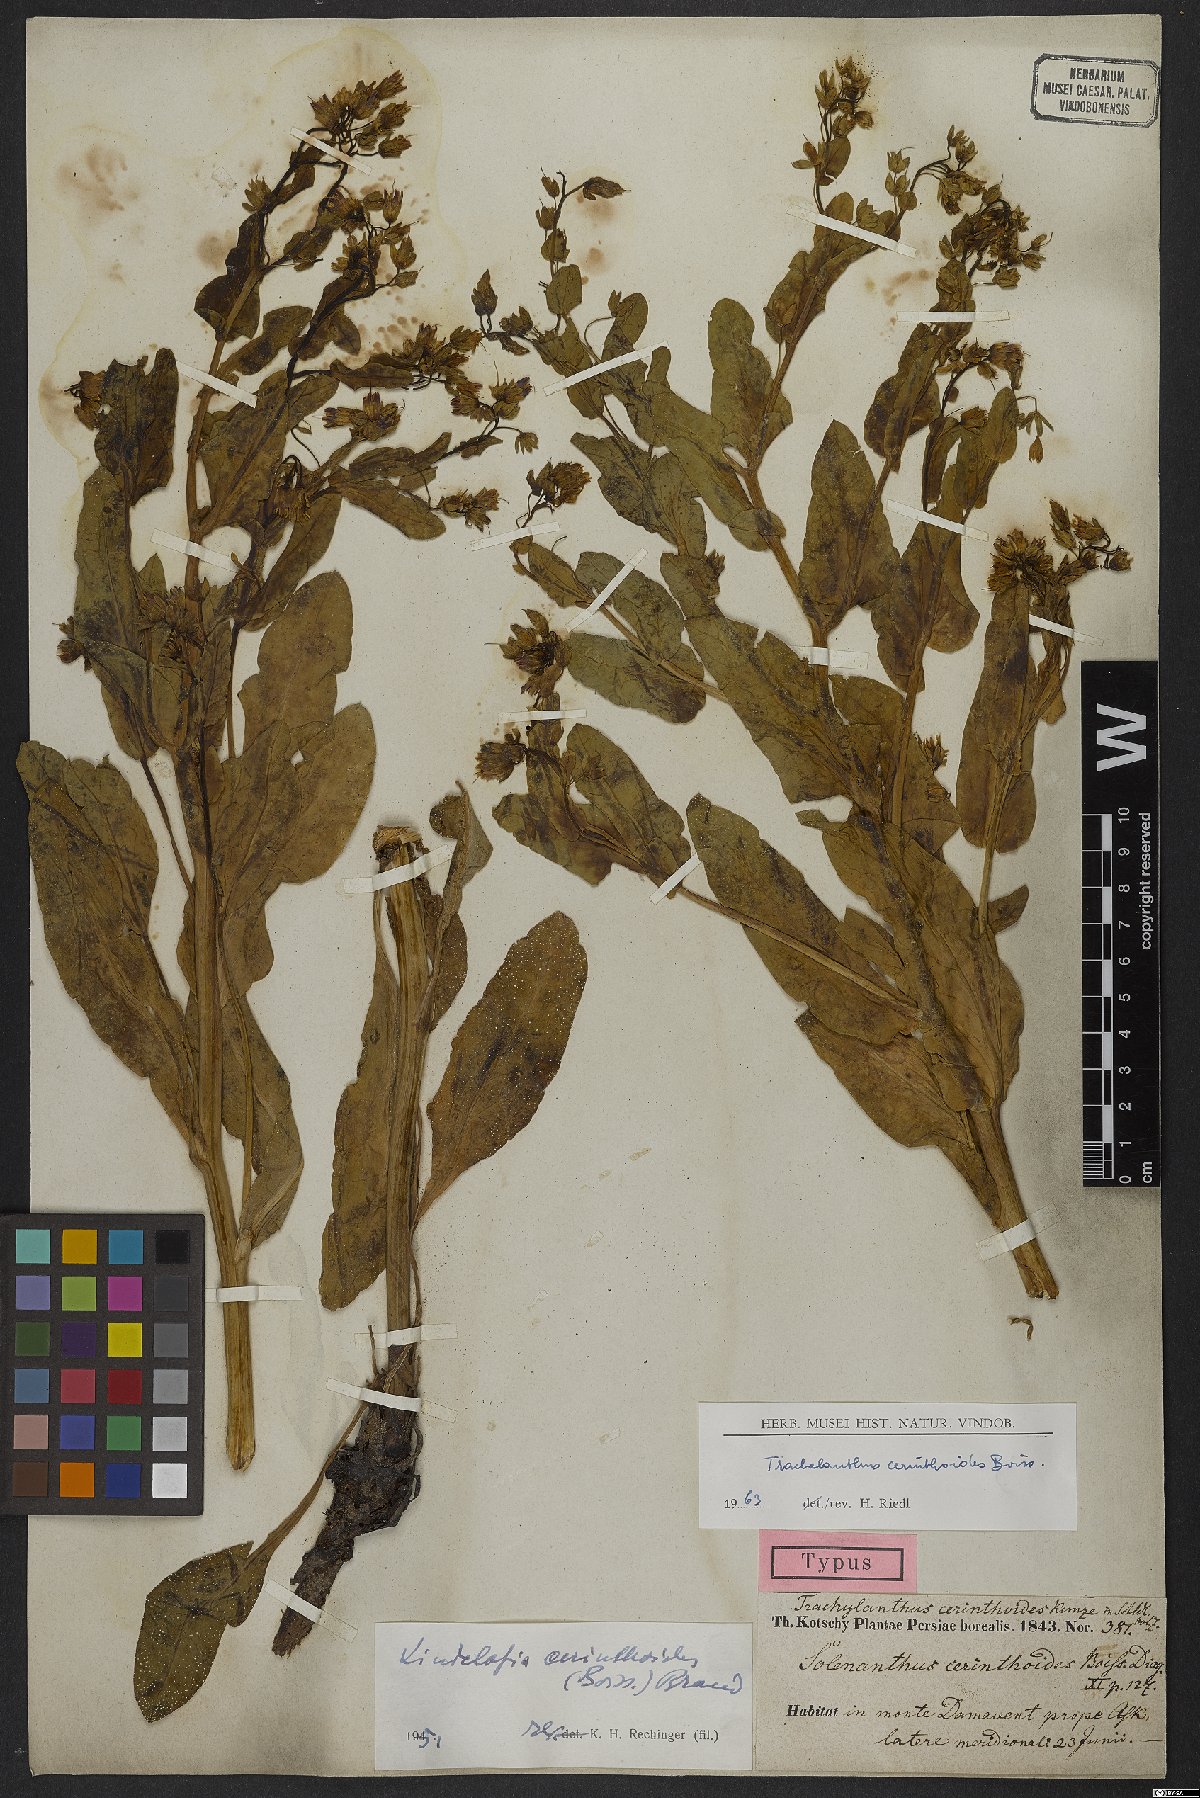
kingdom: Plantae
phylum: Tracheophyta
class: Magnoliopsida
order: Boraginales
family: Boraginaceae
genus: Lindelofia
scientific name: Lindelofia cerinthoides
